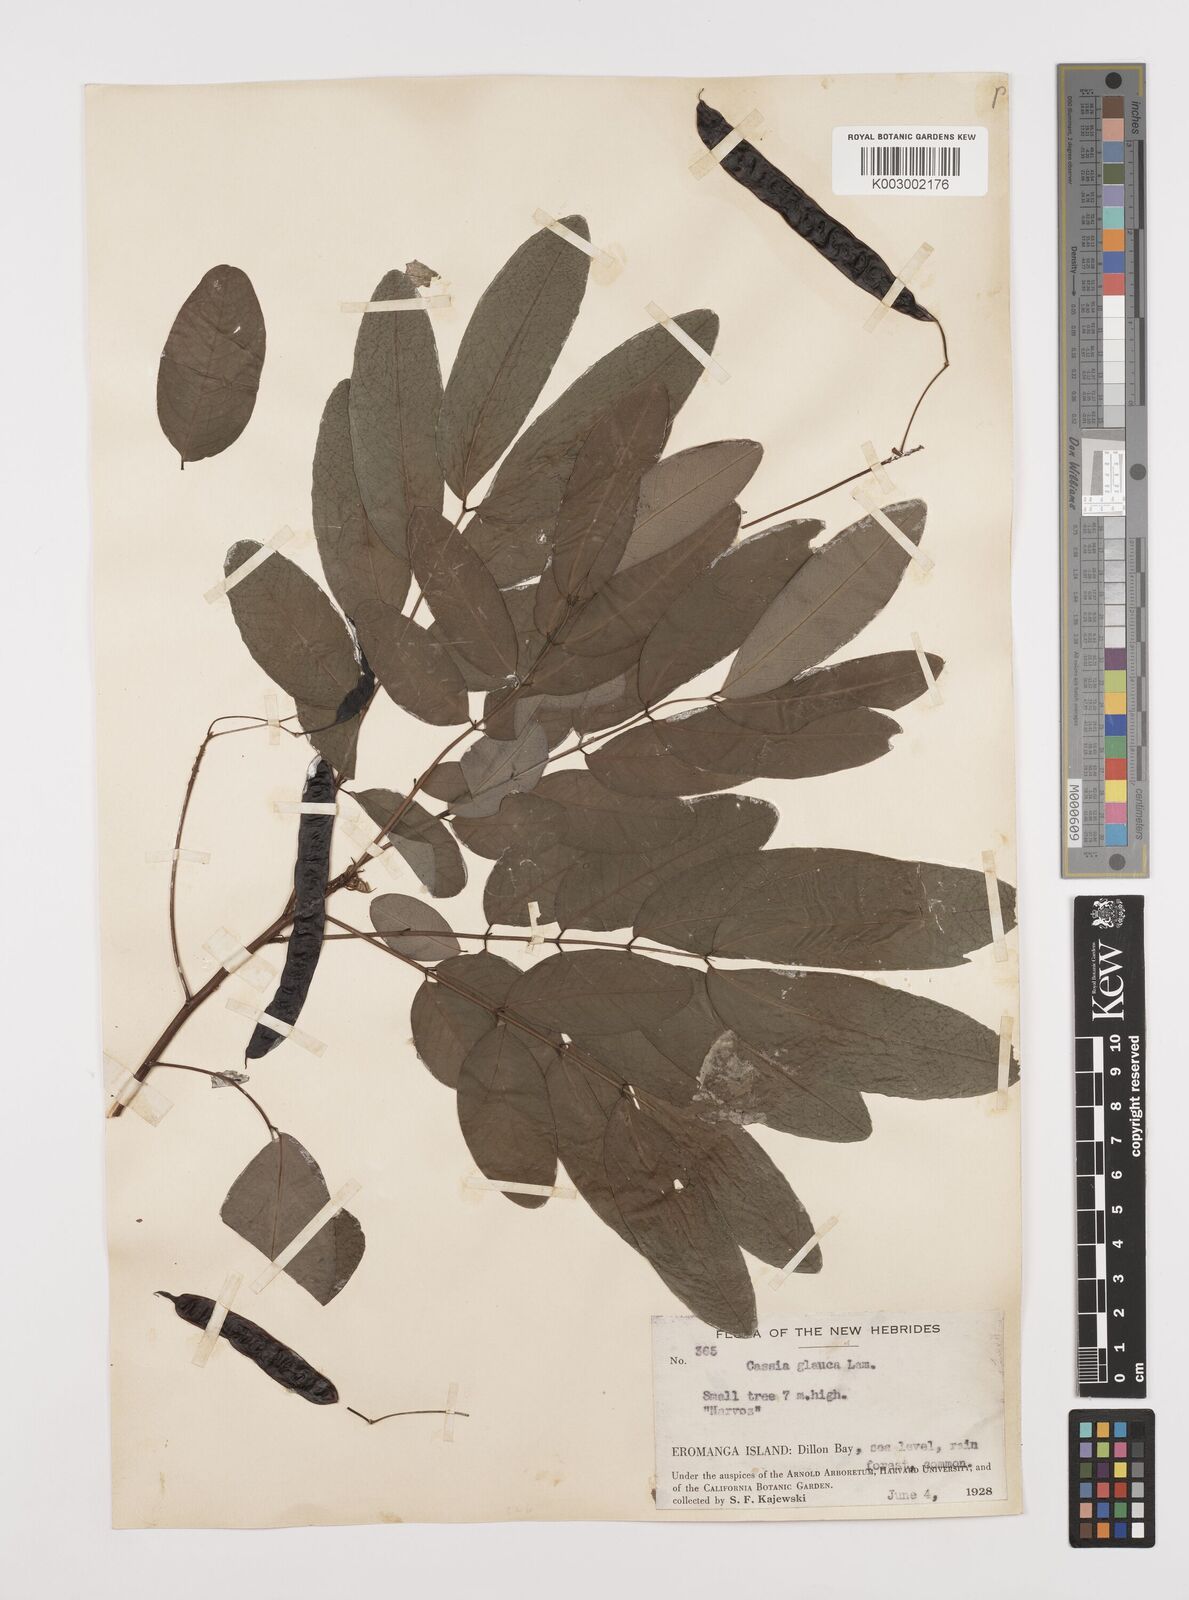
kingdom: Plantae
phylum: Tracheophyta
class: Magnoliopsida
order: Fabales
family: Fabaceae
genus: Senna
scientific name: Senna surattensis
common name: Glossy shower
